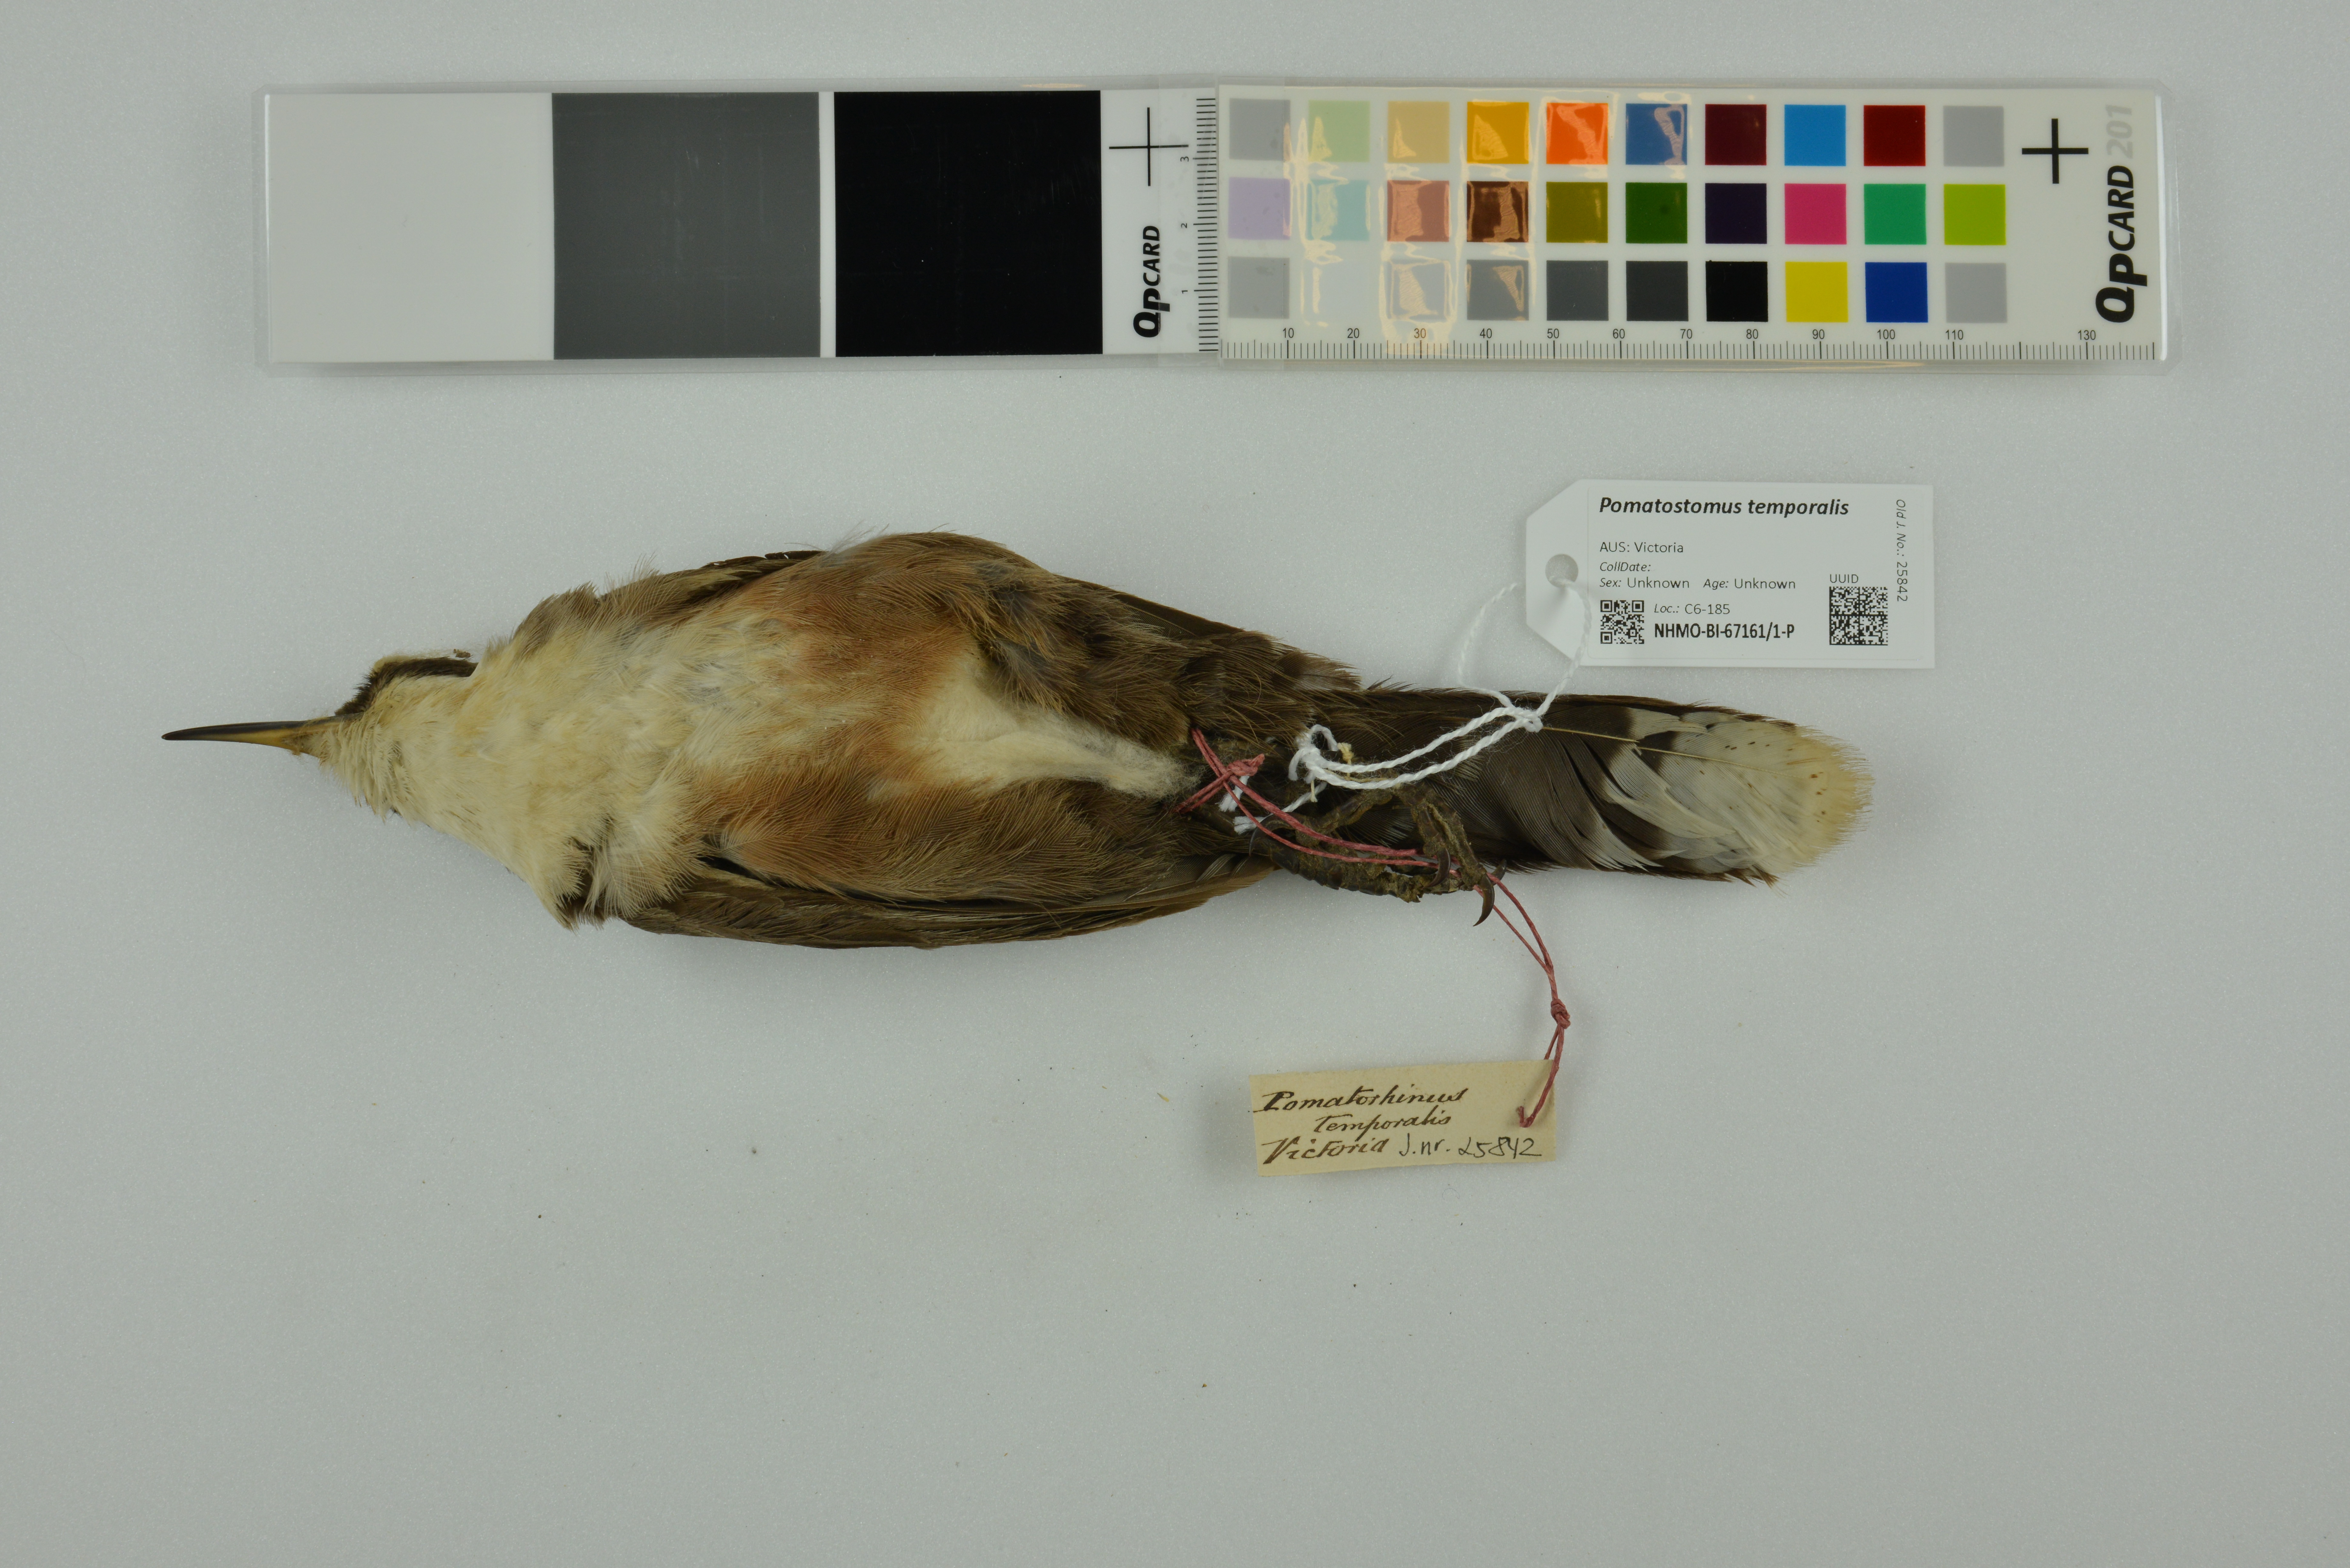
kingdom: Animalia
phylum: Chordata
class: Aves
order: Passeriformes
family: Pomatostomidae
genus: Pomatostomus
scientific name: Pomatostomus temporalis
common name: Grey-crowned babbler
